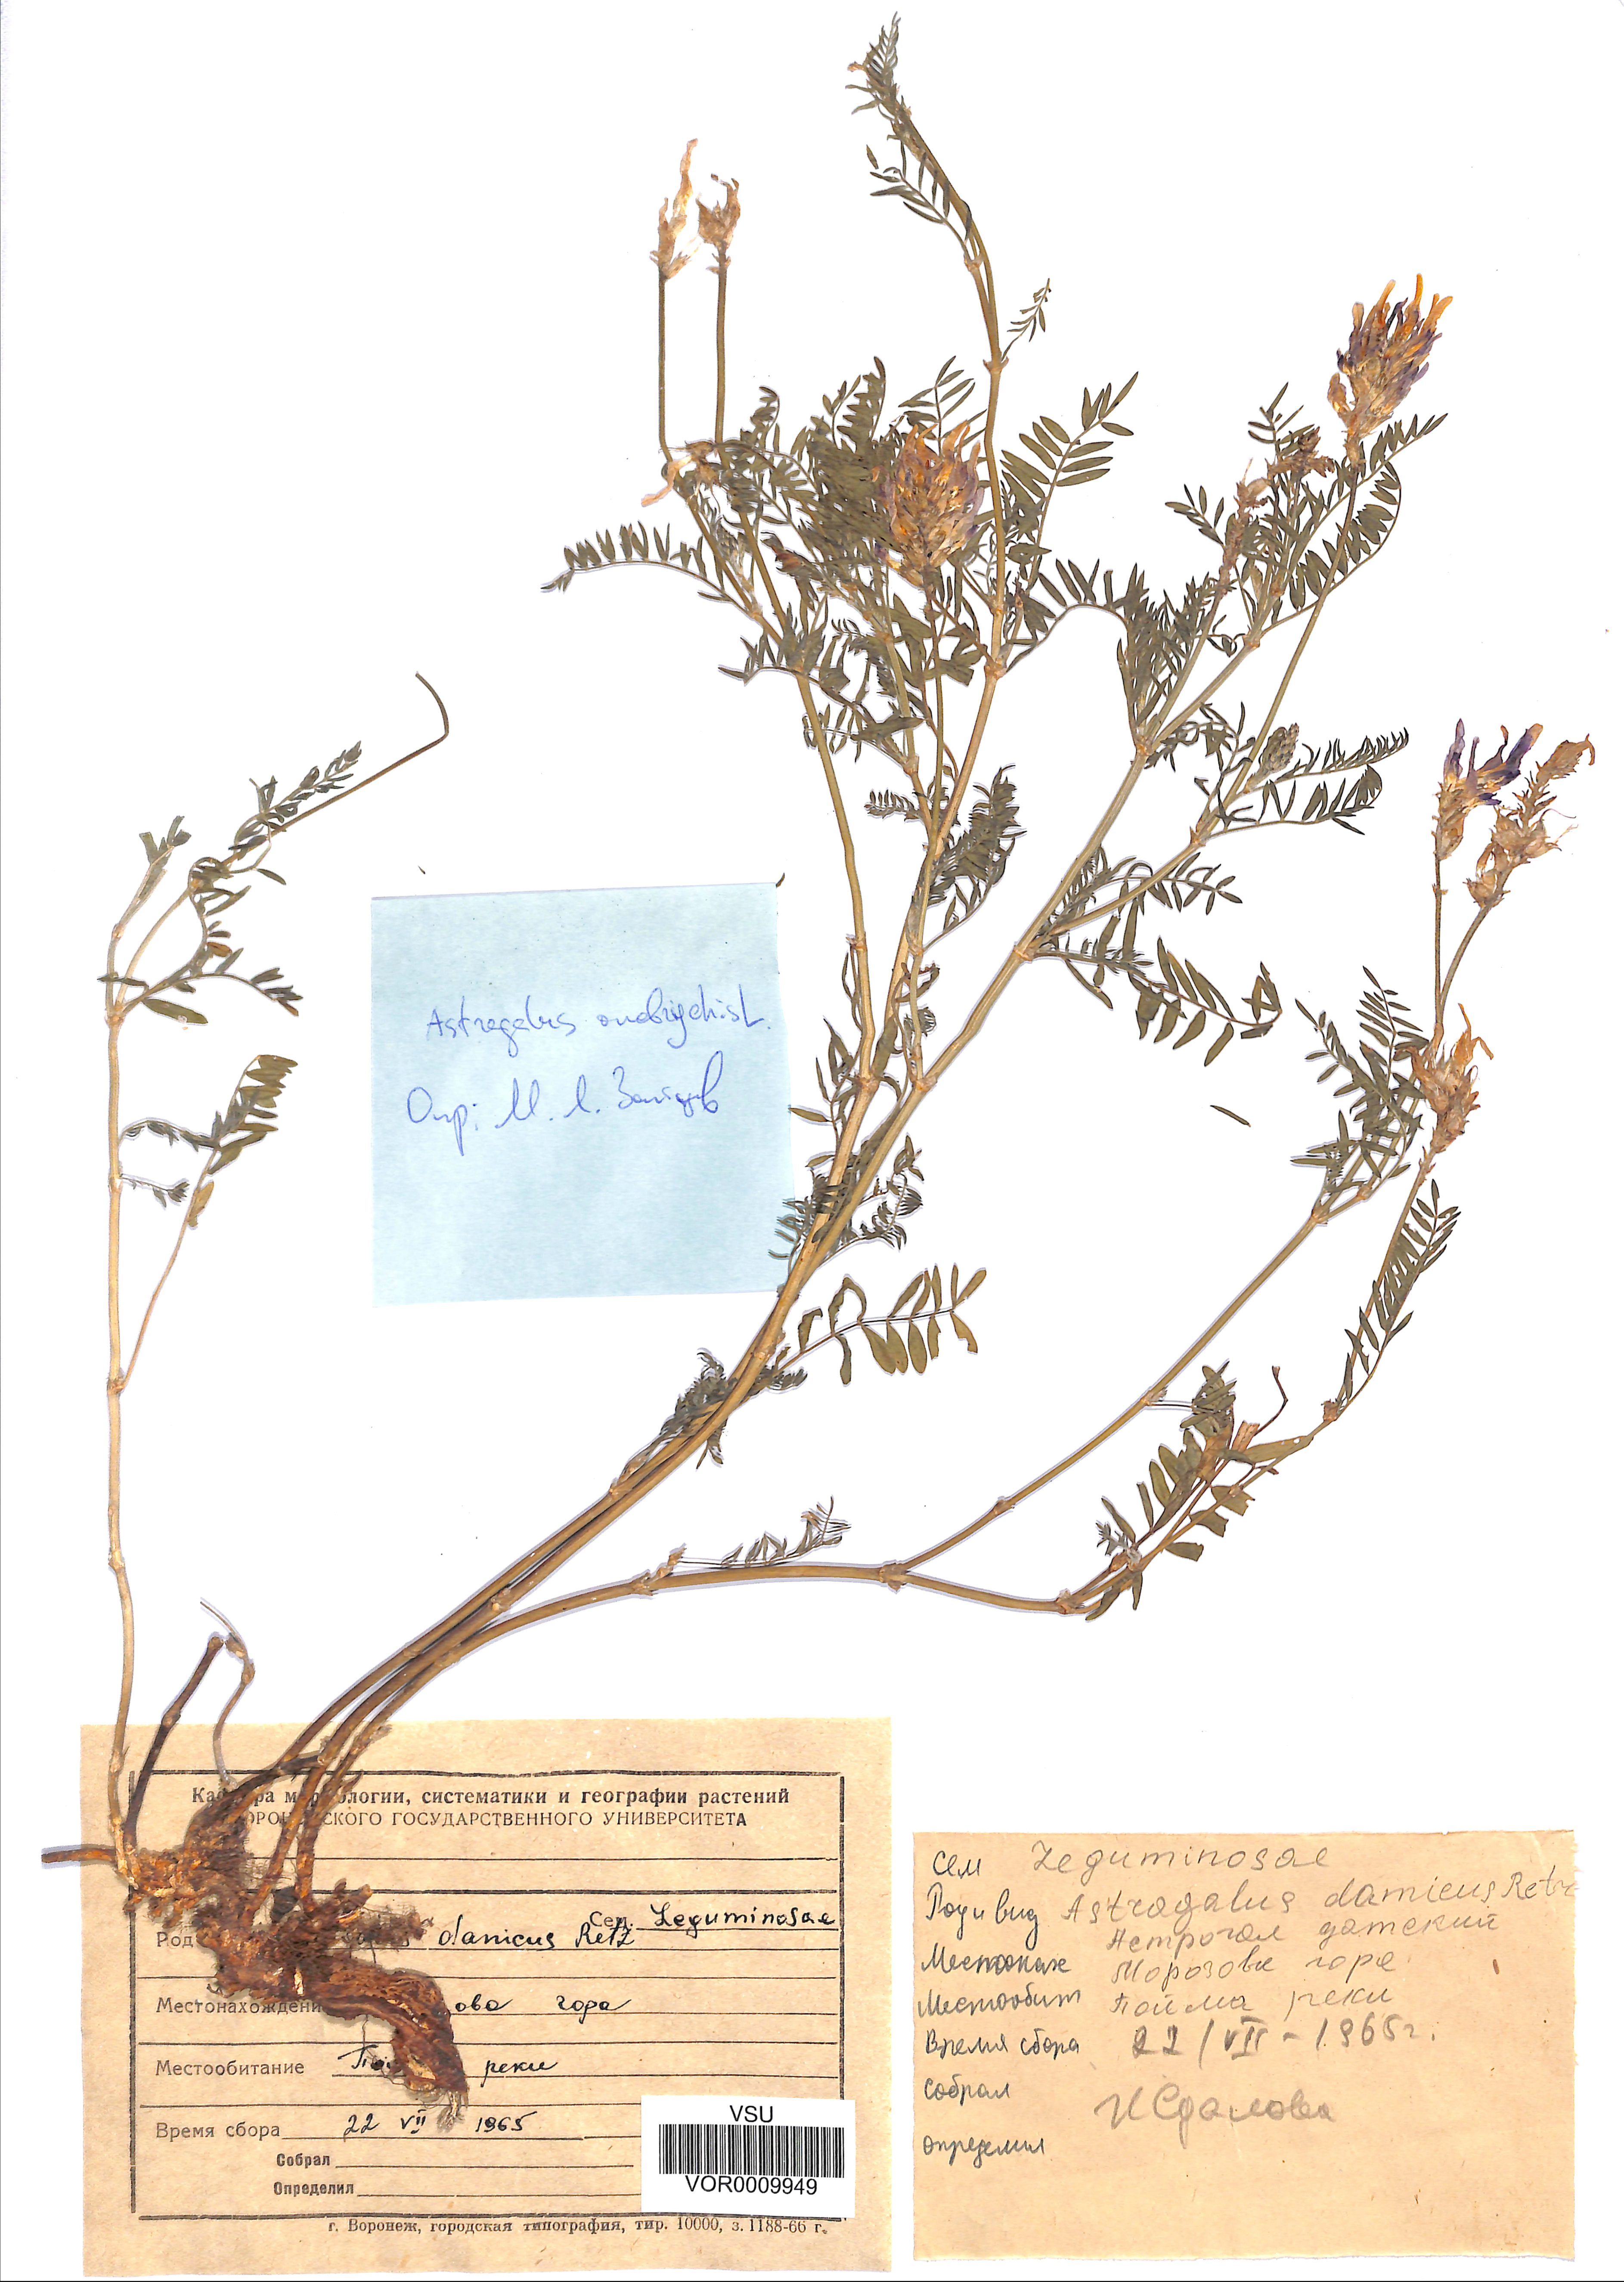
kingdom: Plantae
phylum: Tracheophyta
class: Magnoliopsida
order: Fabales
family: Fabaceae
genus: Astragalus
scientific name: Astragalus onobrychis
